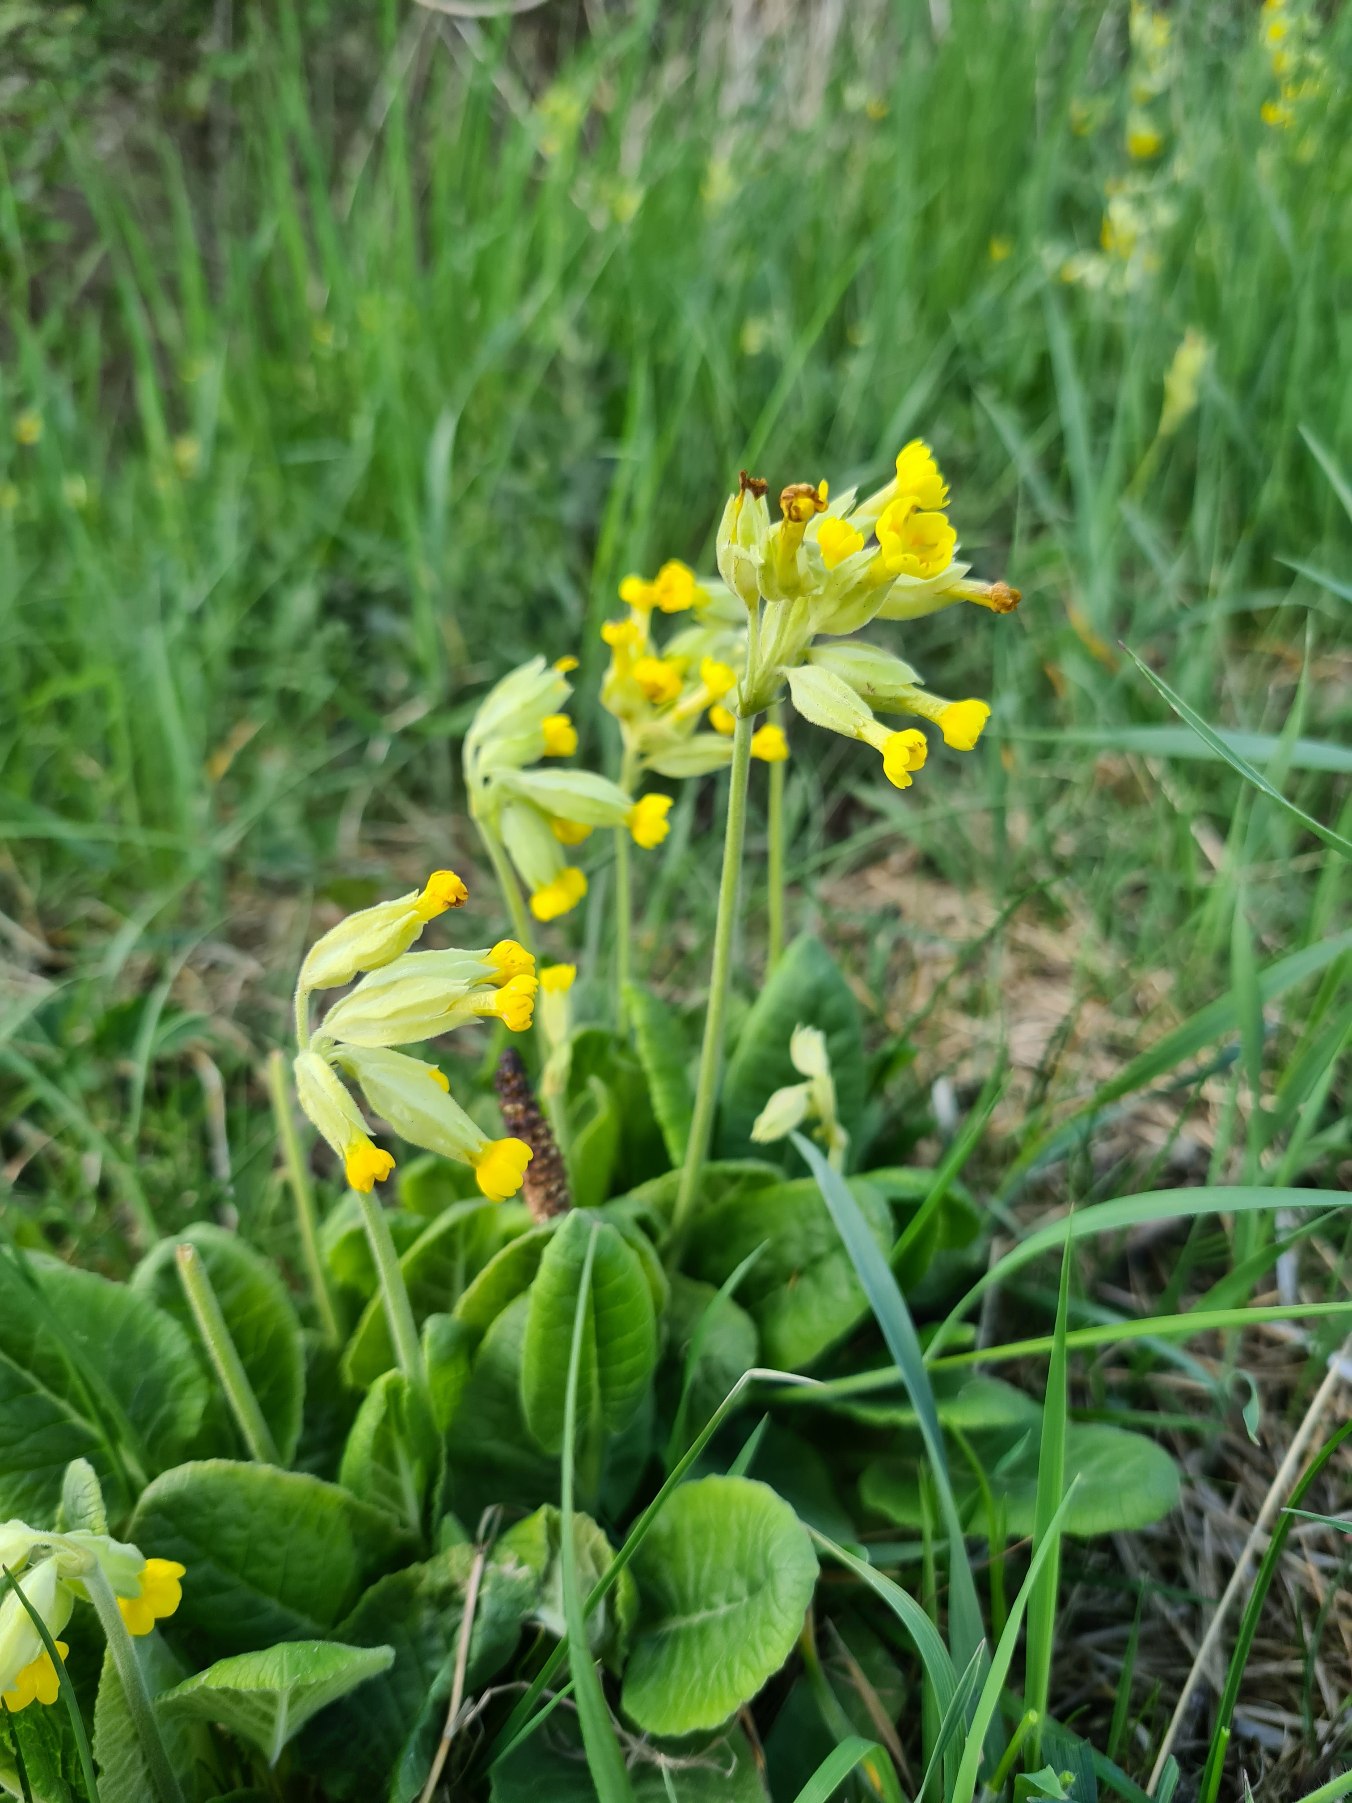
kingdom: Plantae
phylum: Tracheophyta
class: Magnoliopsida
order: Ericales
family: Primulaceae
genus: Primula
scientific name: Primula veris
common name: Hulkravet kodriver
